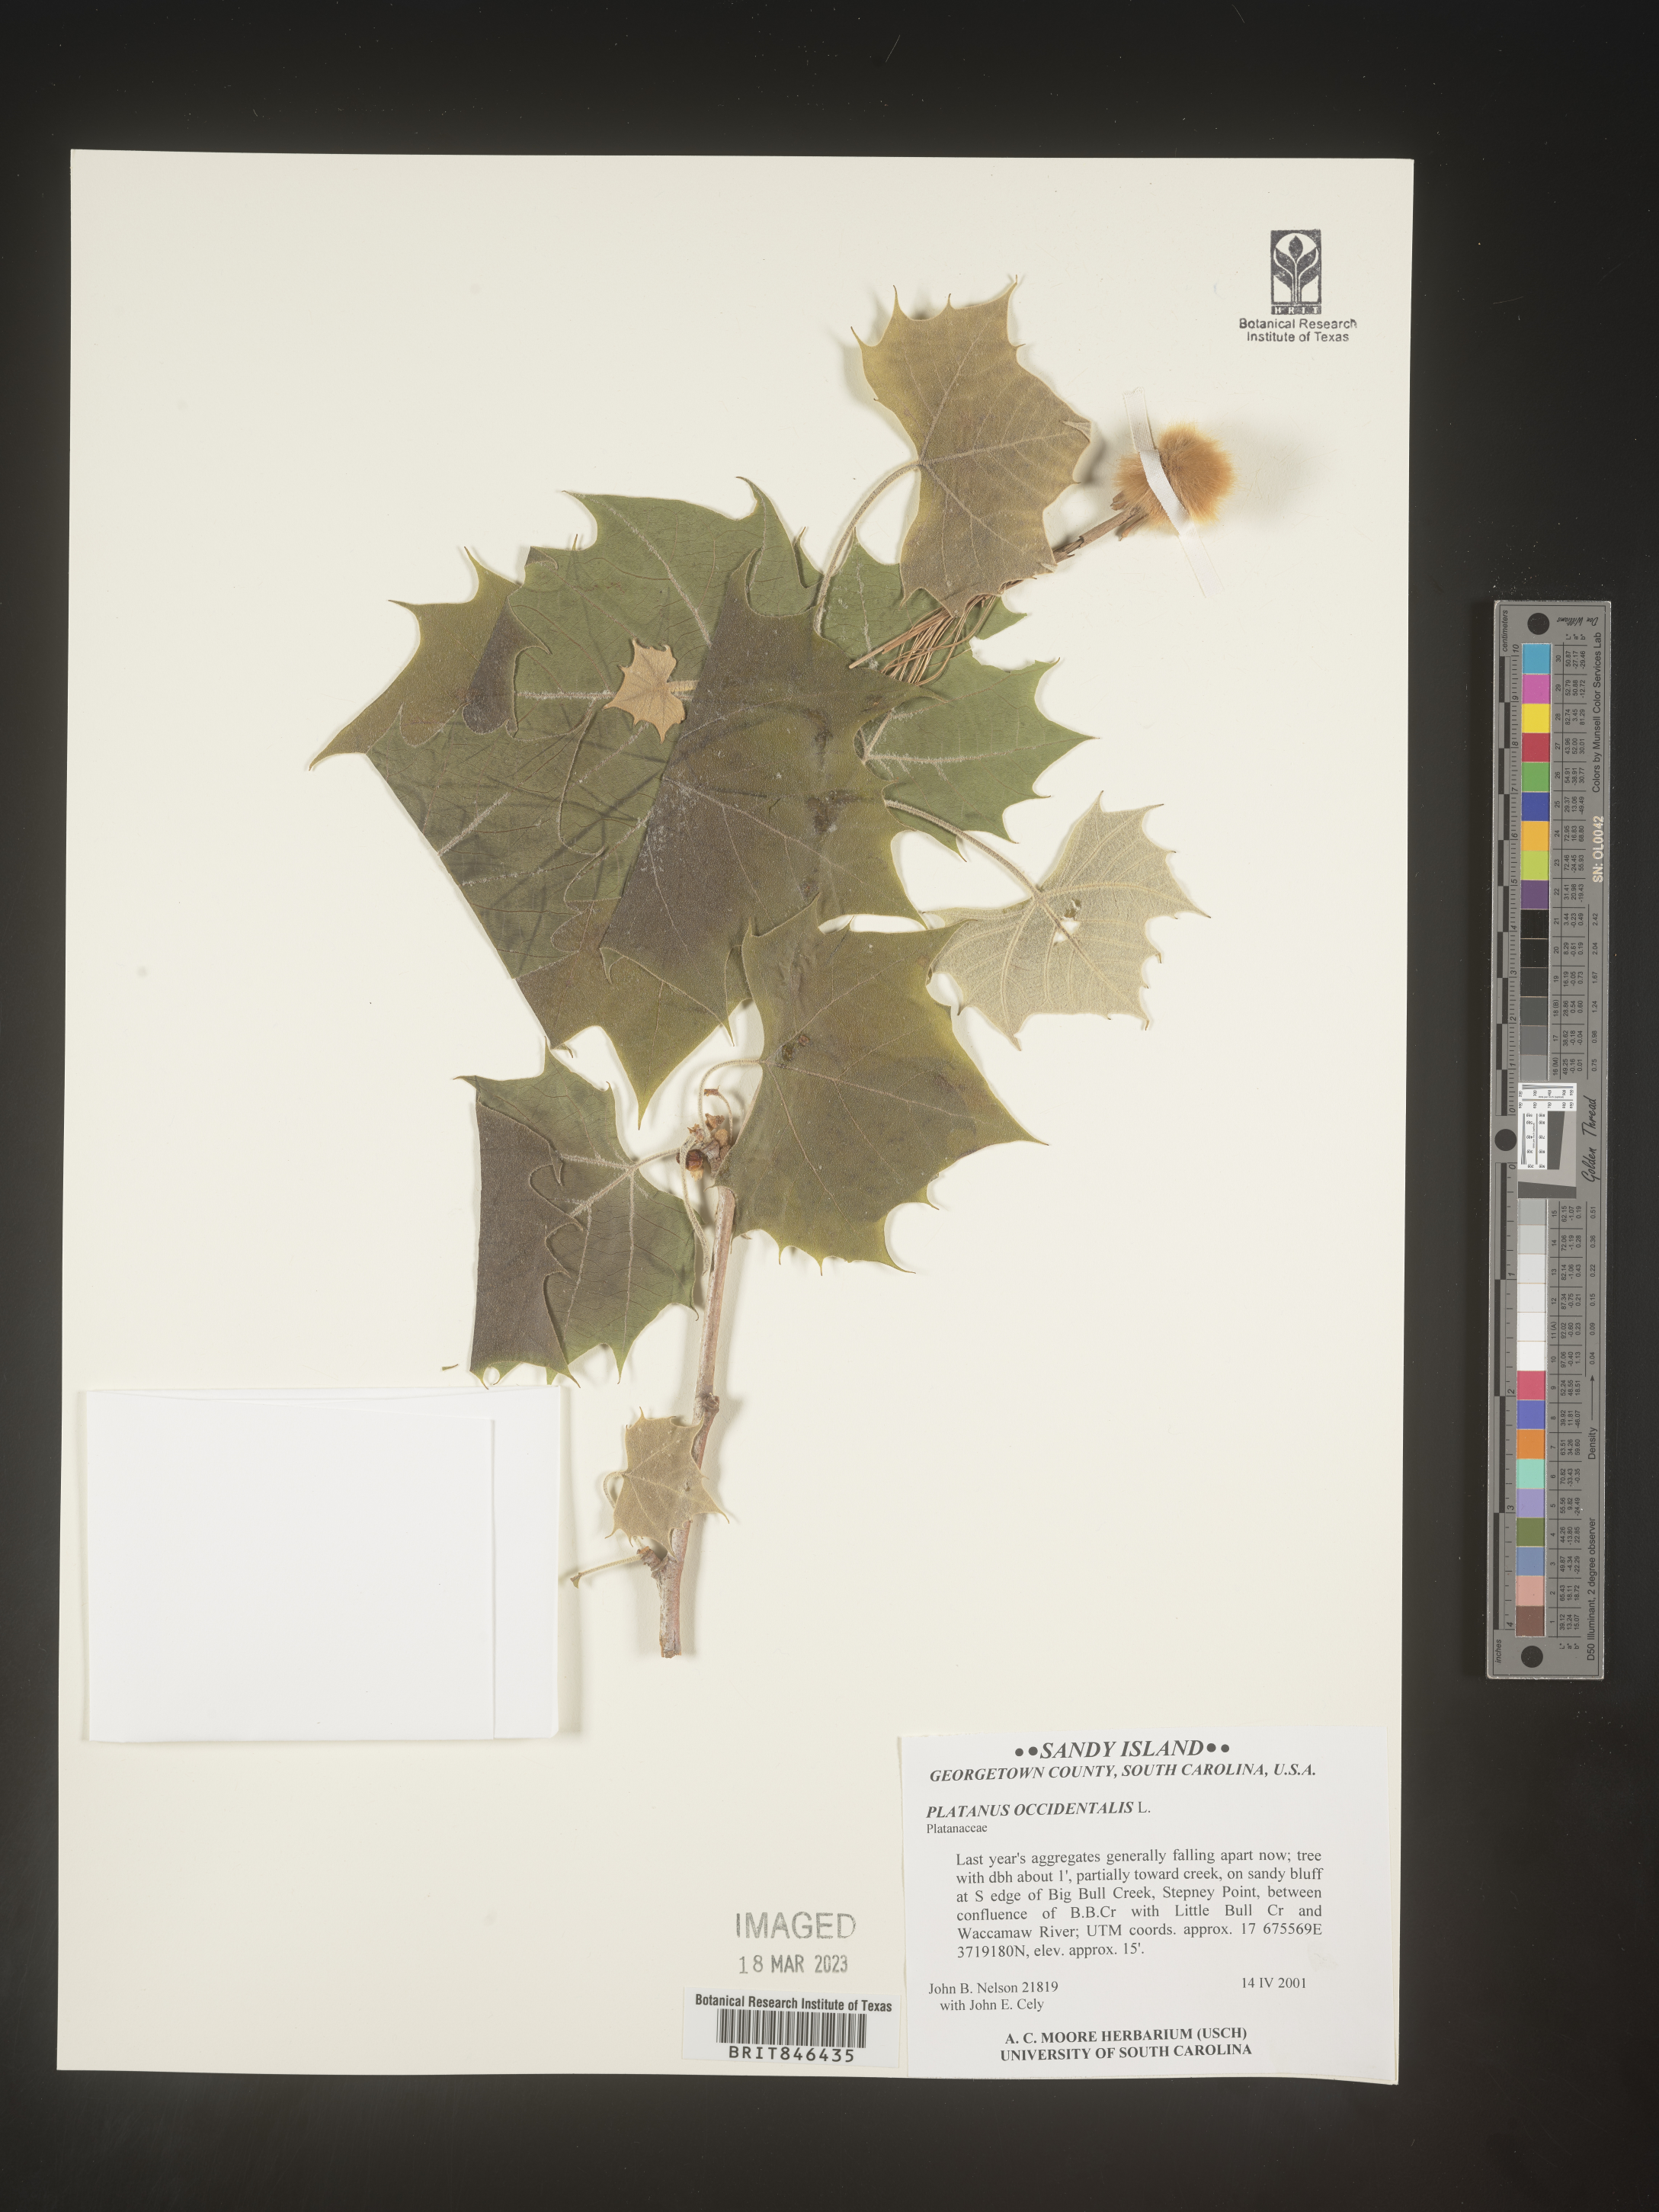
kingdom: Plantae
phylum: Tracheophyta
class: Magnoliopsida
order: Proteales
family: Platanaceae
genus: Platanus
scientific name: Platanus occidentalis
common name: American sycamore
